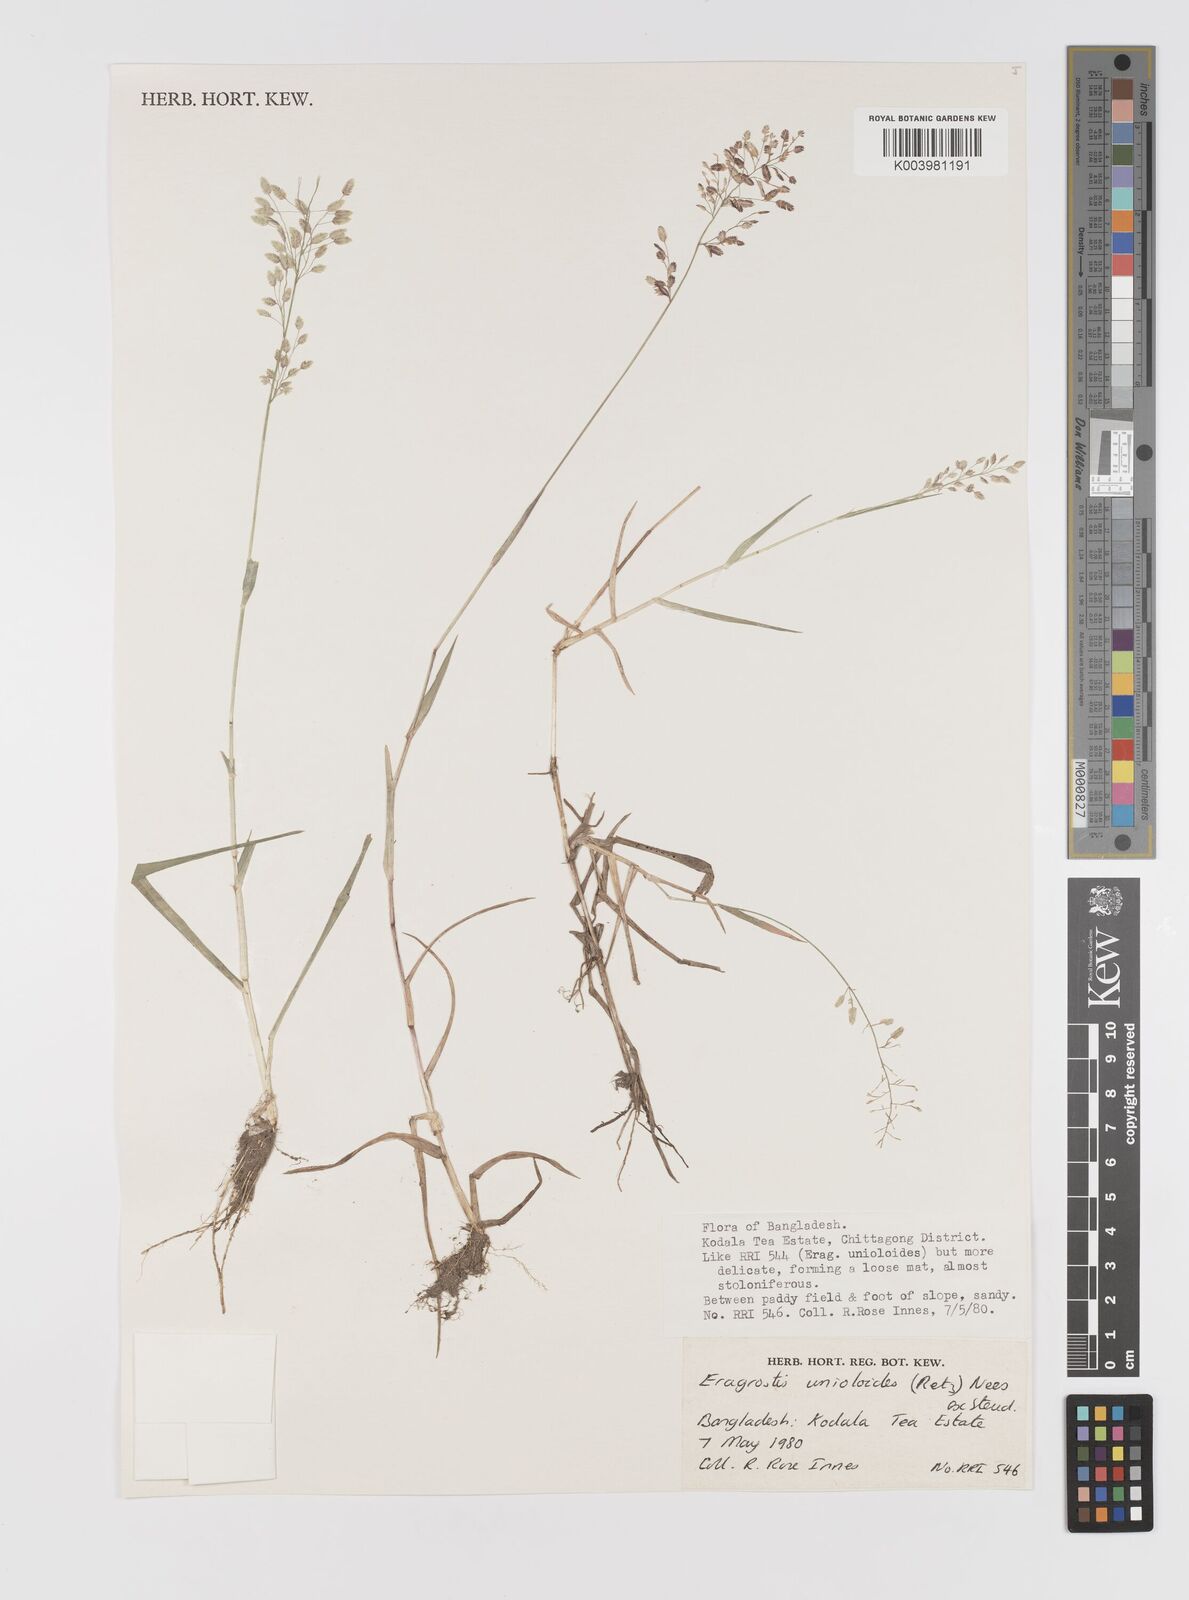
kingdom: Plantae
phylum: Tracheophyta
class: Liliopsida
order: Poales
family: Poaceae
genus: Eragrostis
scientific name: Eragrostis unioloides
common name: Chinese lovegrass
